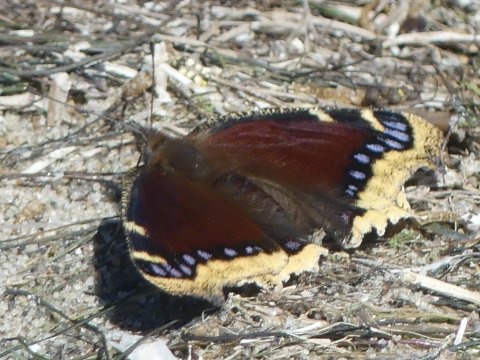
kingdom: Animalia
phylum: Arthropoda
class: Insecta
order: Lepidoptera
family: Nymphalidae
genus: Nymphalis
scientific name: Nymphalis antiopa
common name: Mourning Cloak
